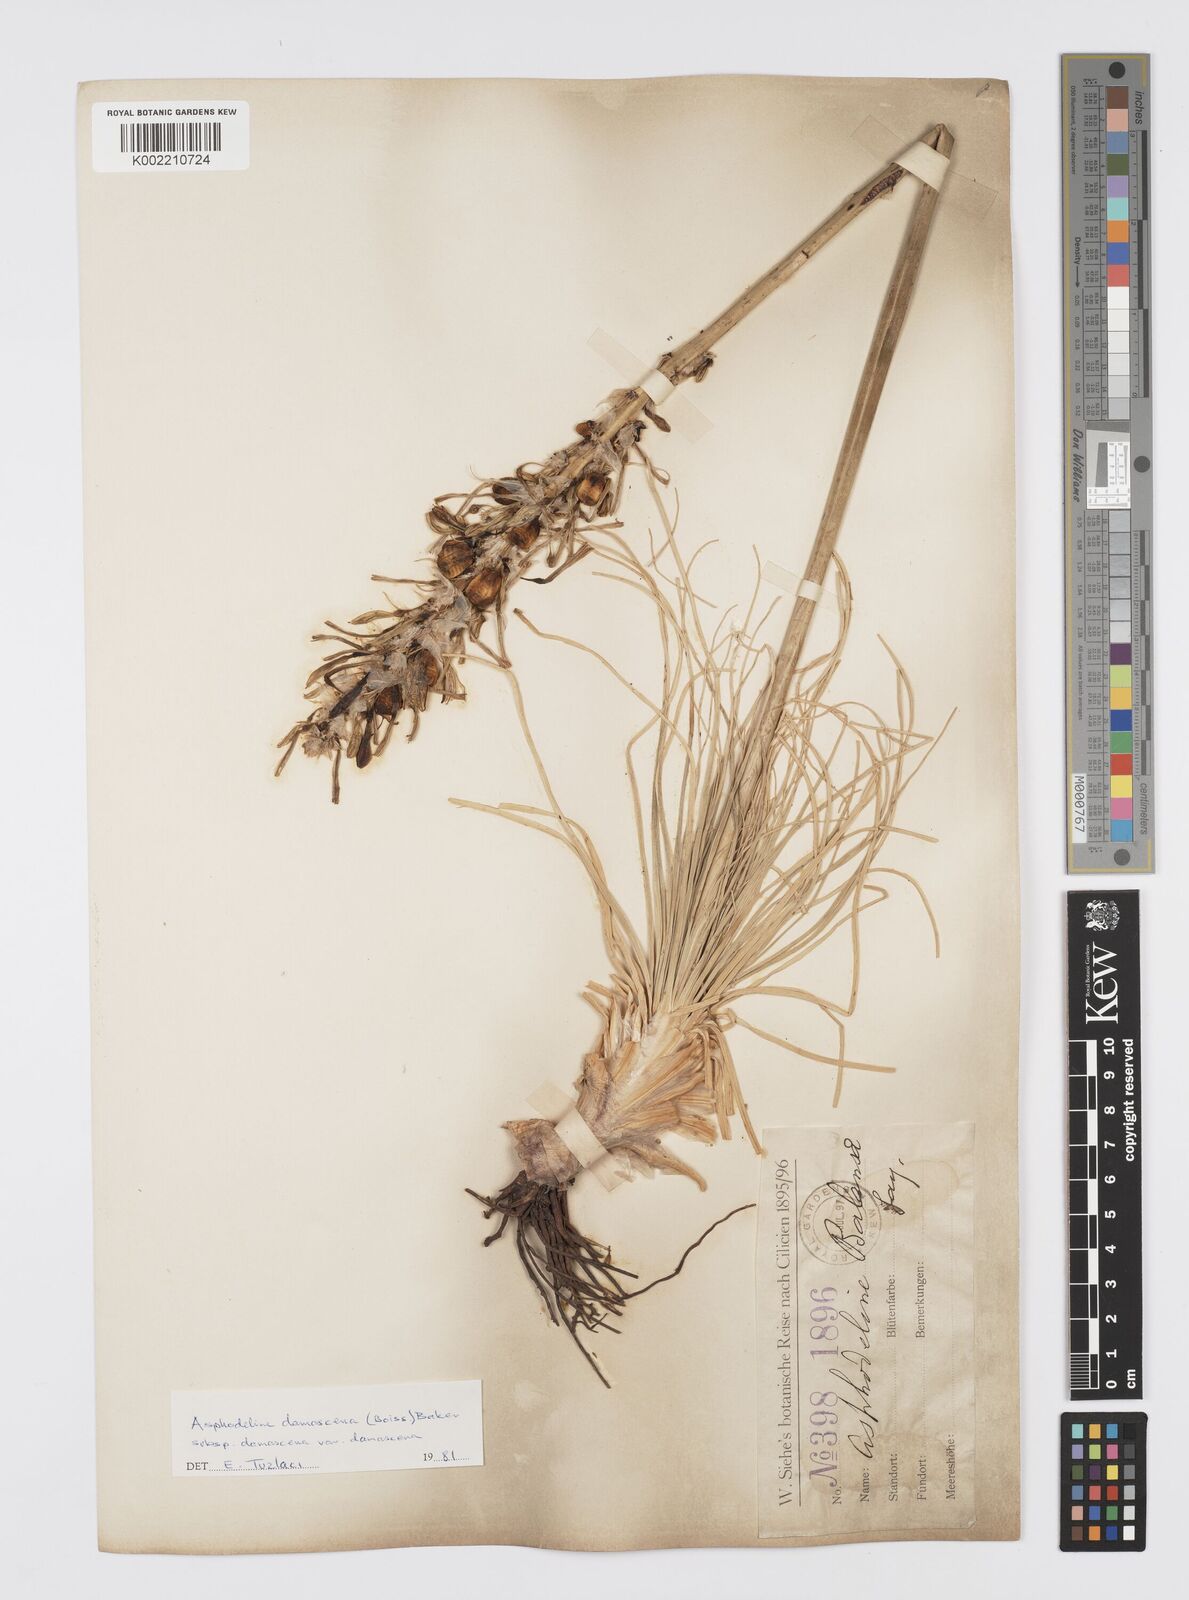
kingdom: Plantae
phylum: Tracheophyta
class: Liliopsida
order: Asparagales
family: Asphodelaceae
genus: Asphodeline
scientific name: Asphodeline damascena
